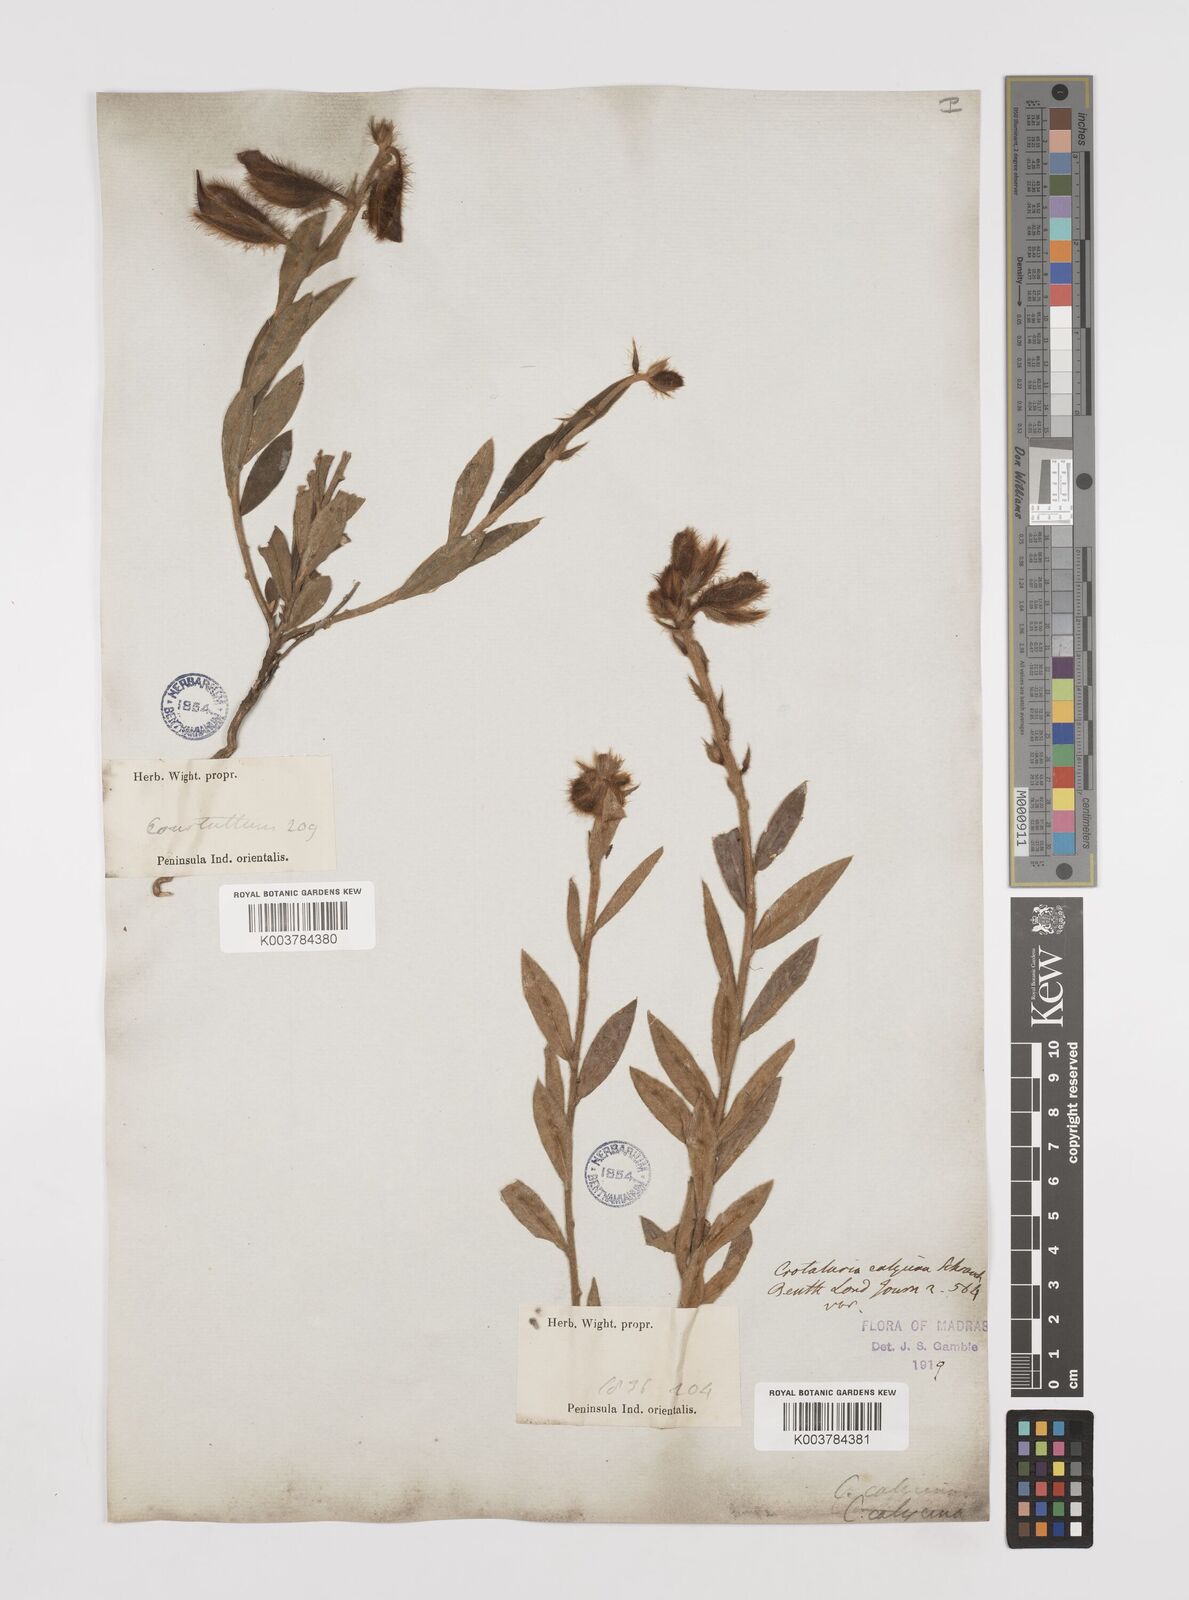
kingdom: Plantae
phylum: Tracheophyta
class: Magnoliopsida
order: Fabales
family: Fabaceae
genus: Crotalaria
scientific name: Crotalaria calycina
